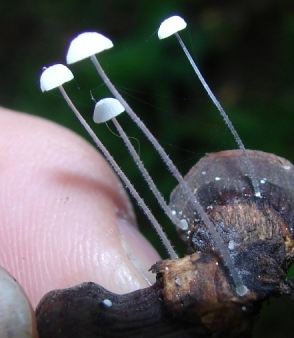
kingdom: Fungi
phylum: Basidiomycota
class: Agaricomycetes
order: Agaricales
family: Mycenaceae
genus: Mycena
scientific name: Mycena tenerrima
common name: pudret huesvamp
